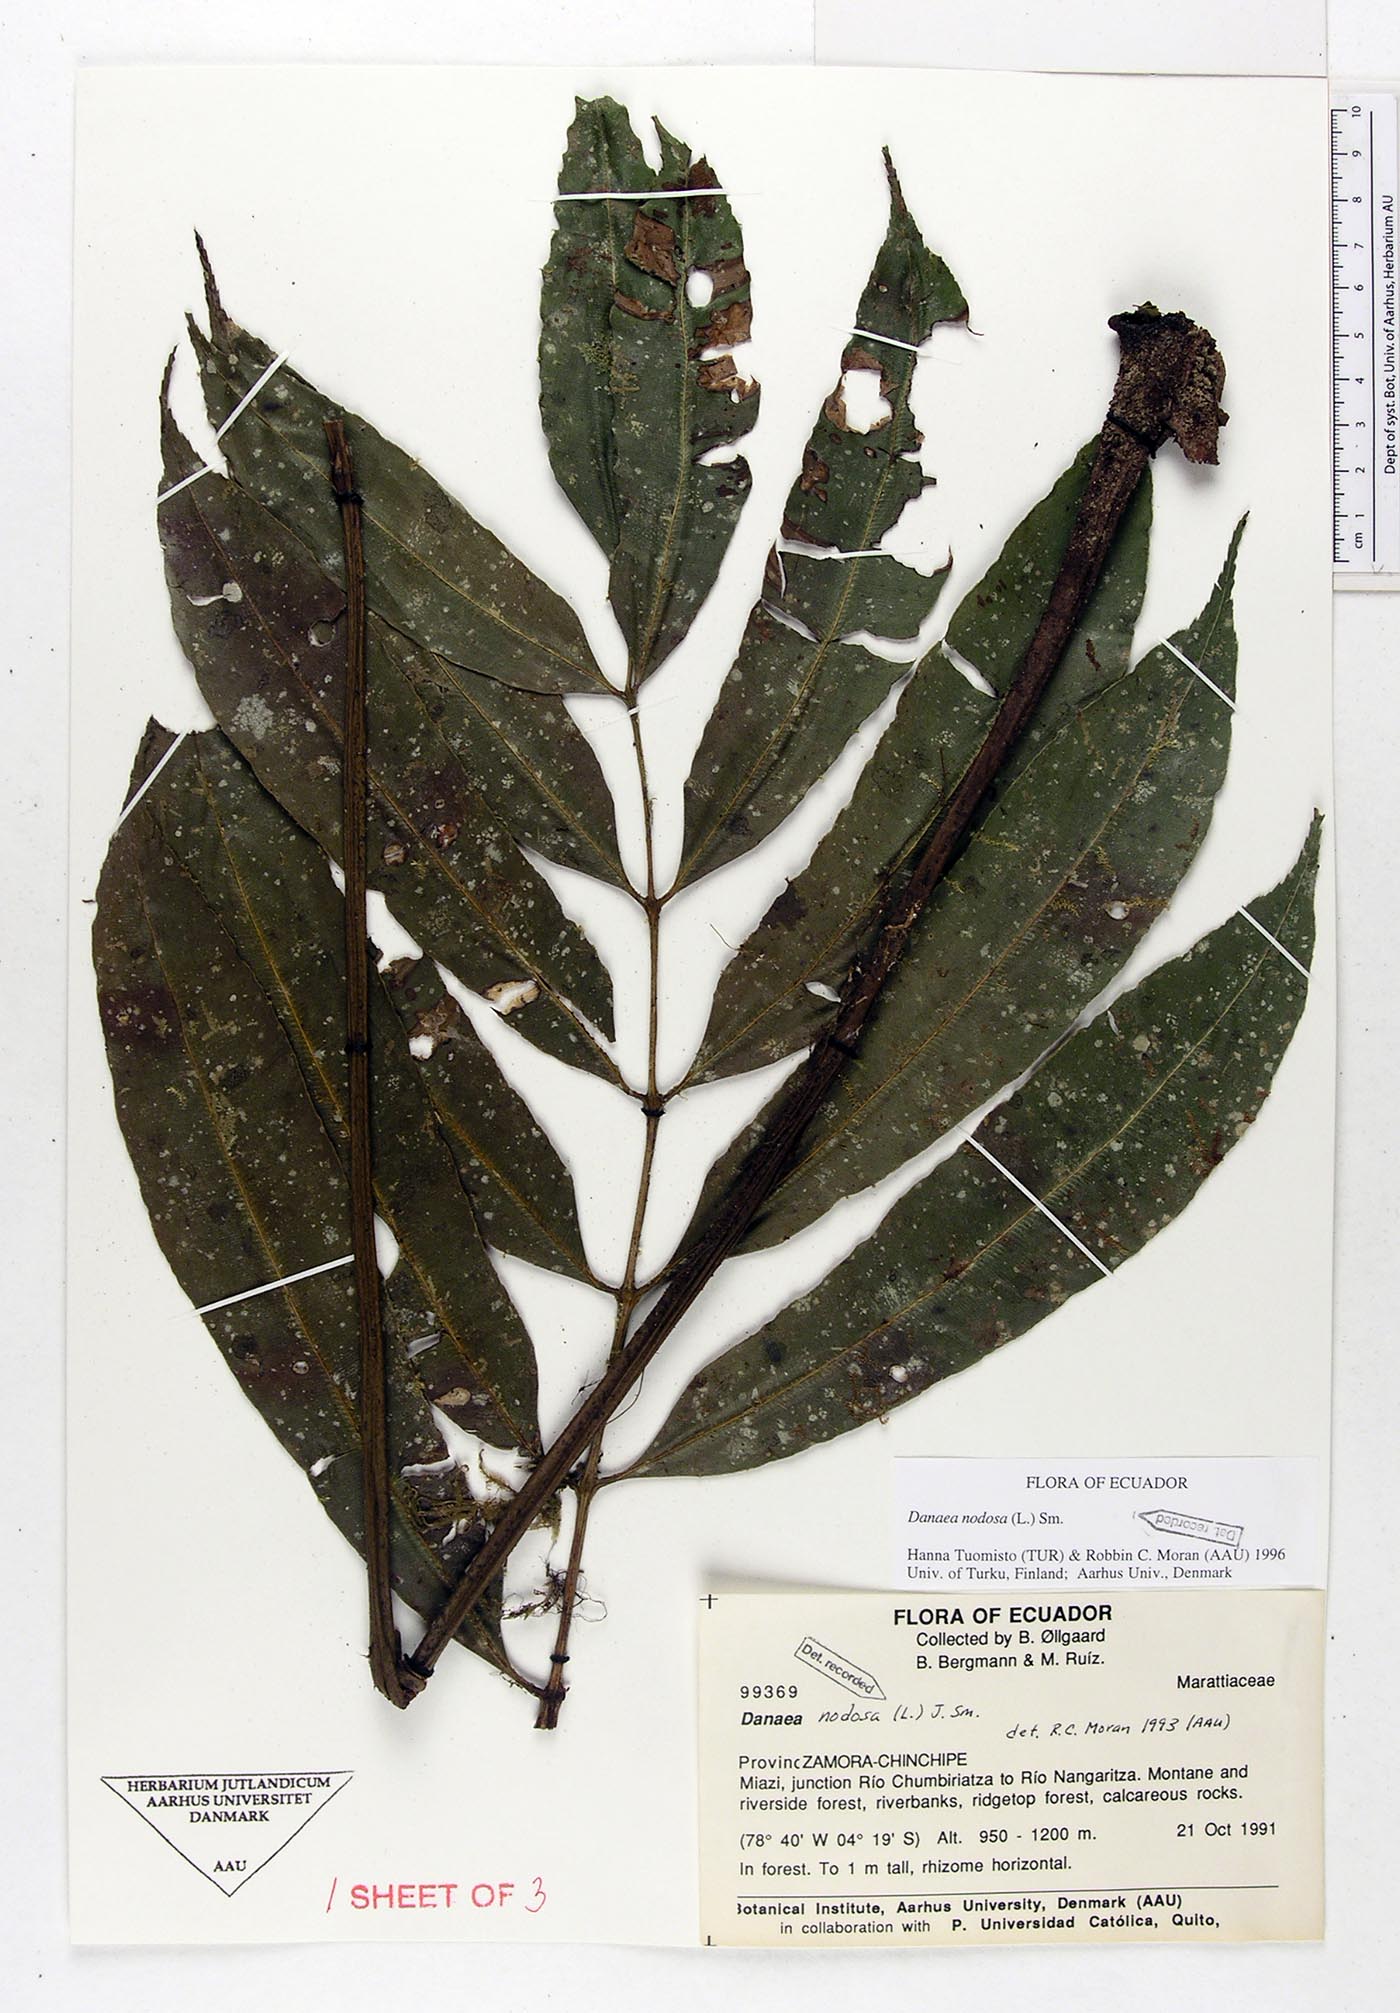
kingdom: Plantae
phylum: Tracheophyta
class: Polypodiopsida
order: Marattiales
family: Marattiaceae
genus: Danaea
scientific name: Danaea nodosa
